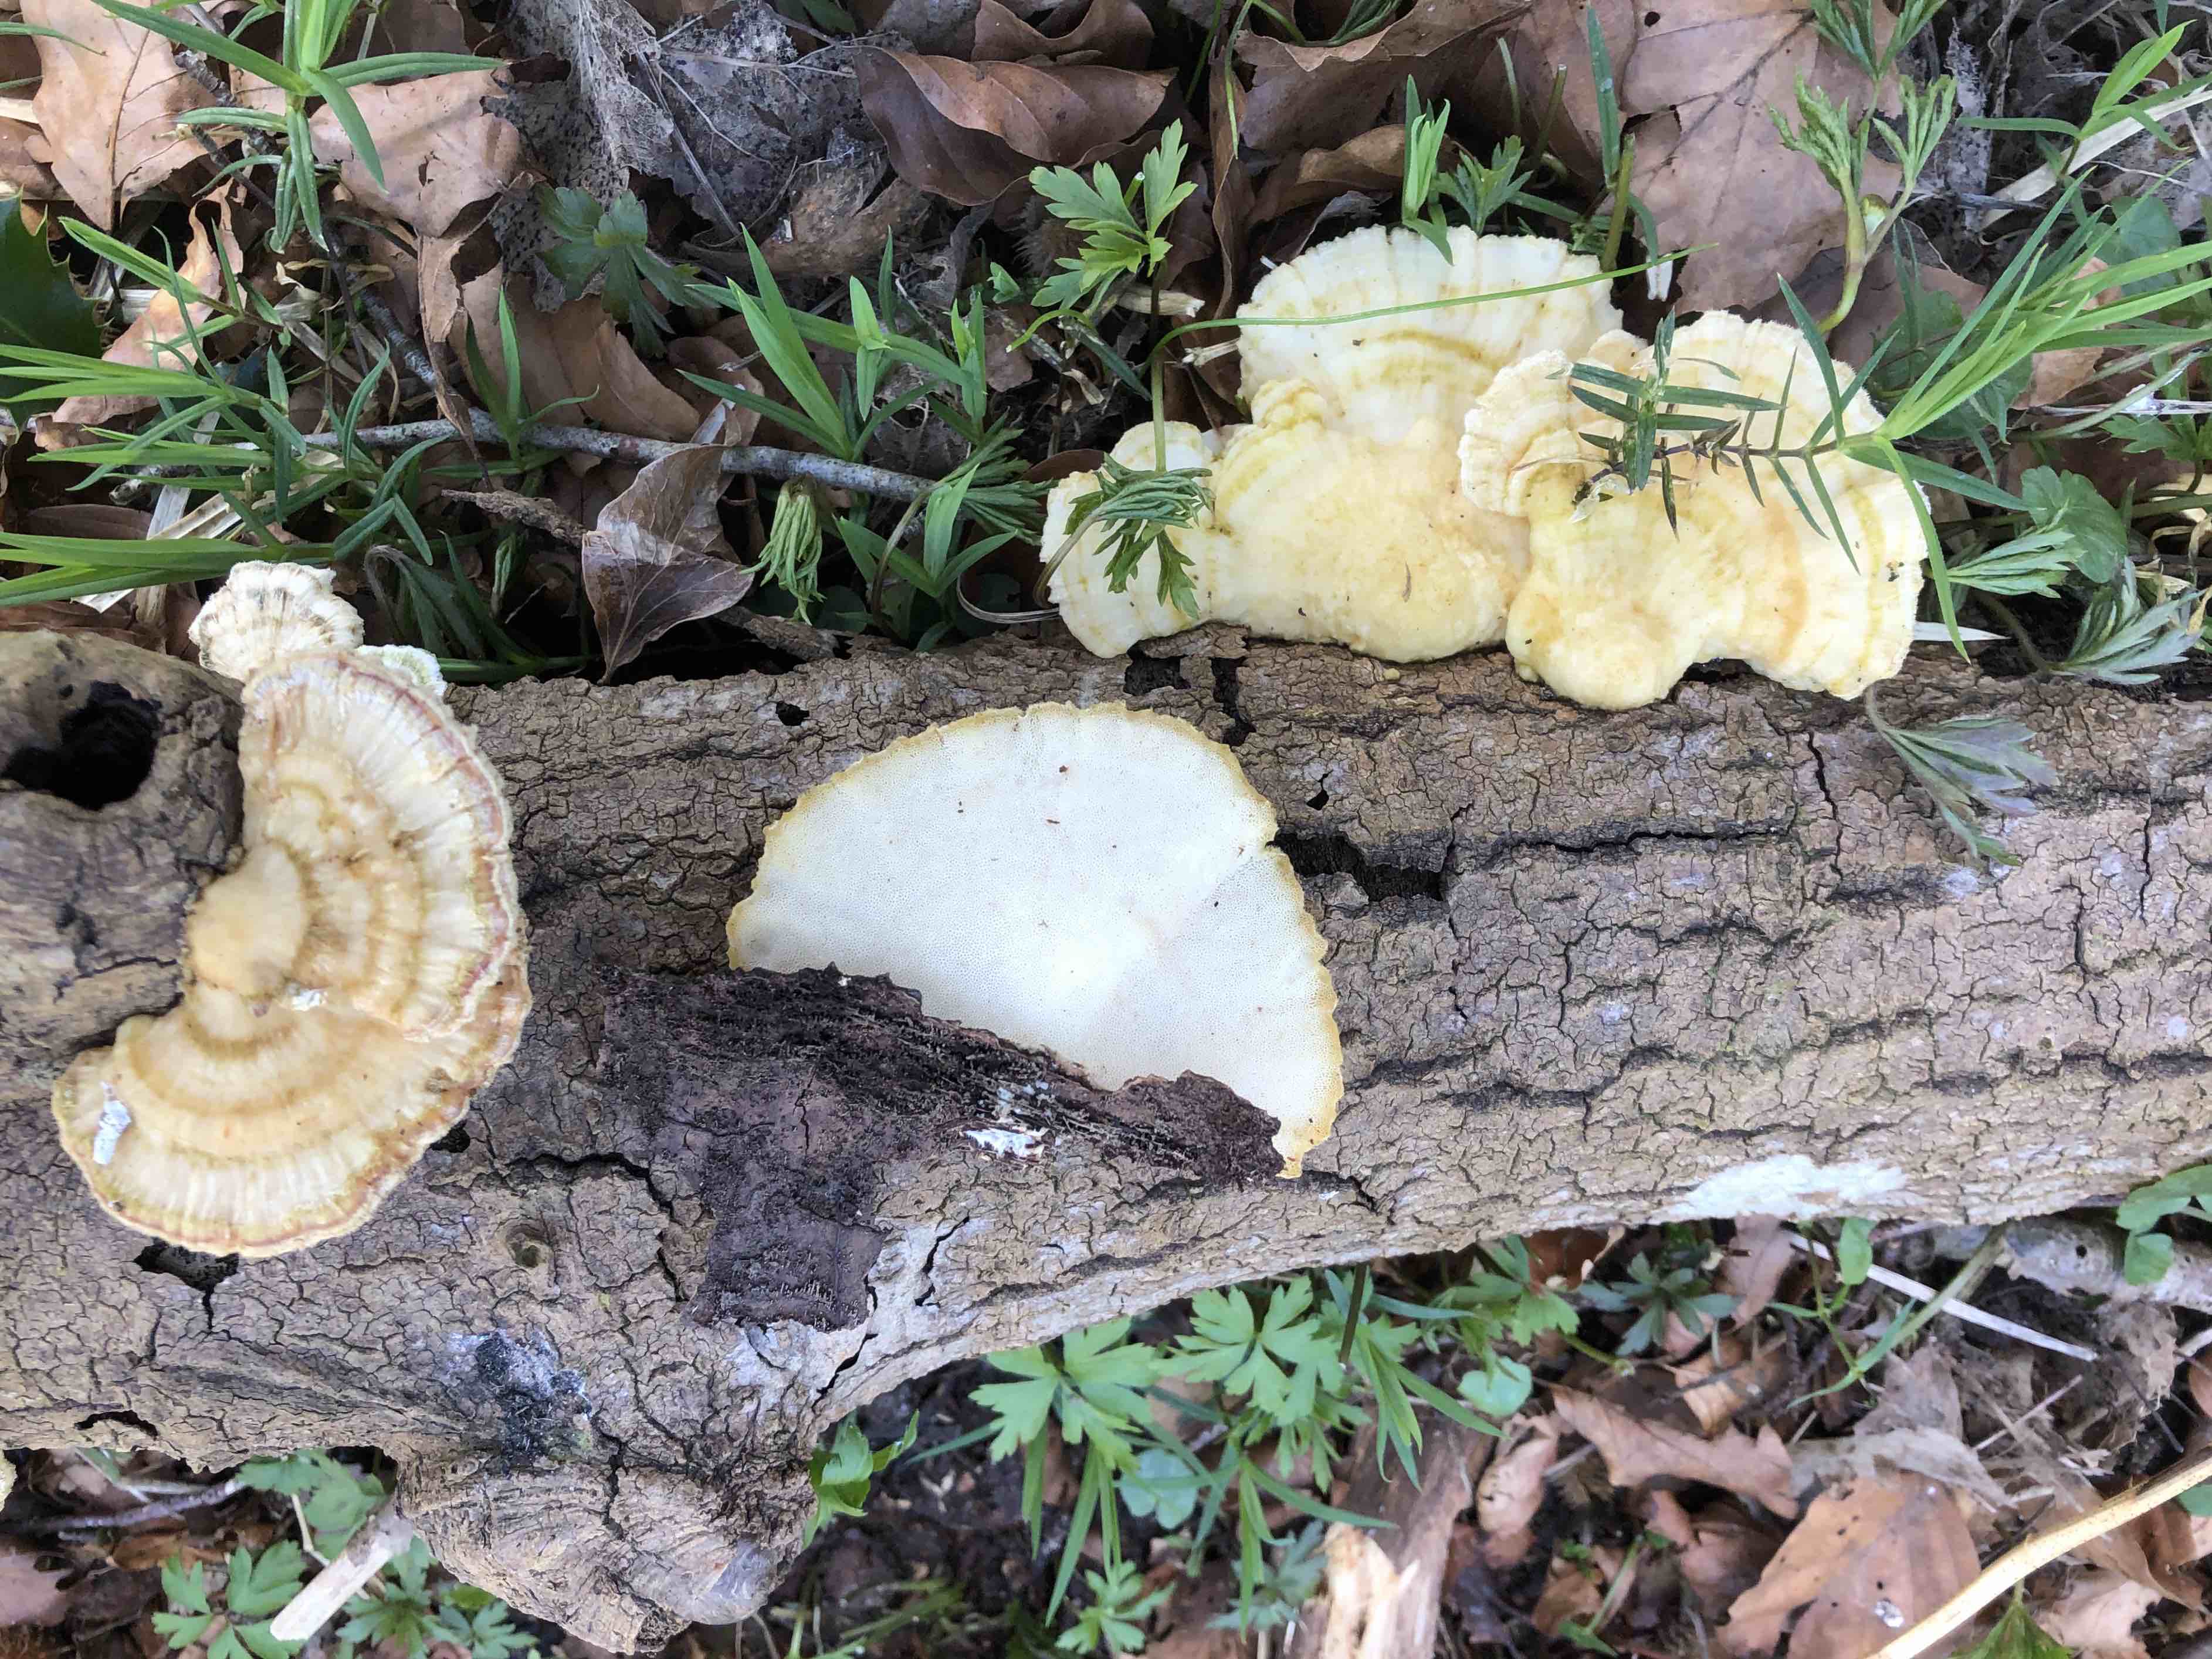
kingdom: Fungi
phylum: Basidiomycota
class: Agaricomycetes
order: Polyporales
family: Polyporaceae
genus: Trametes
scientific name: Trametes
